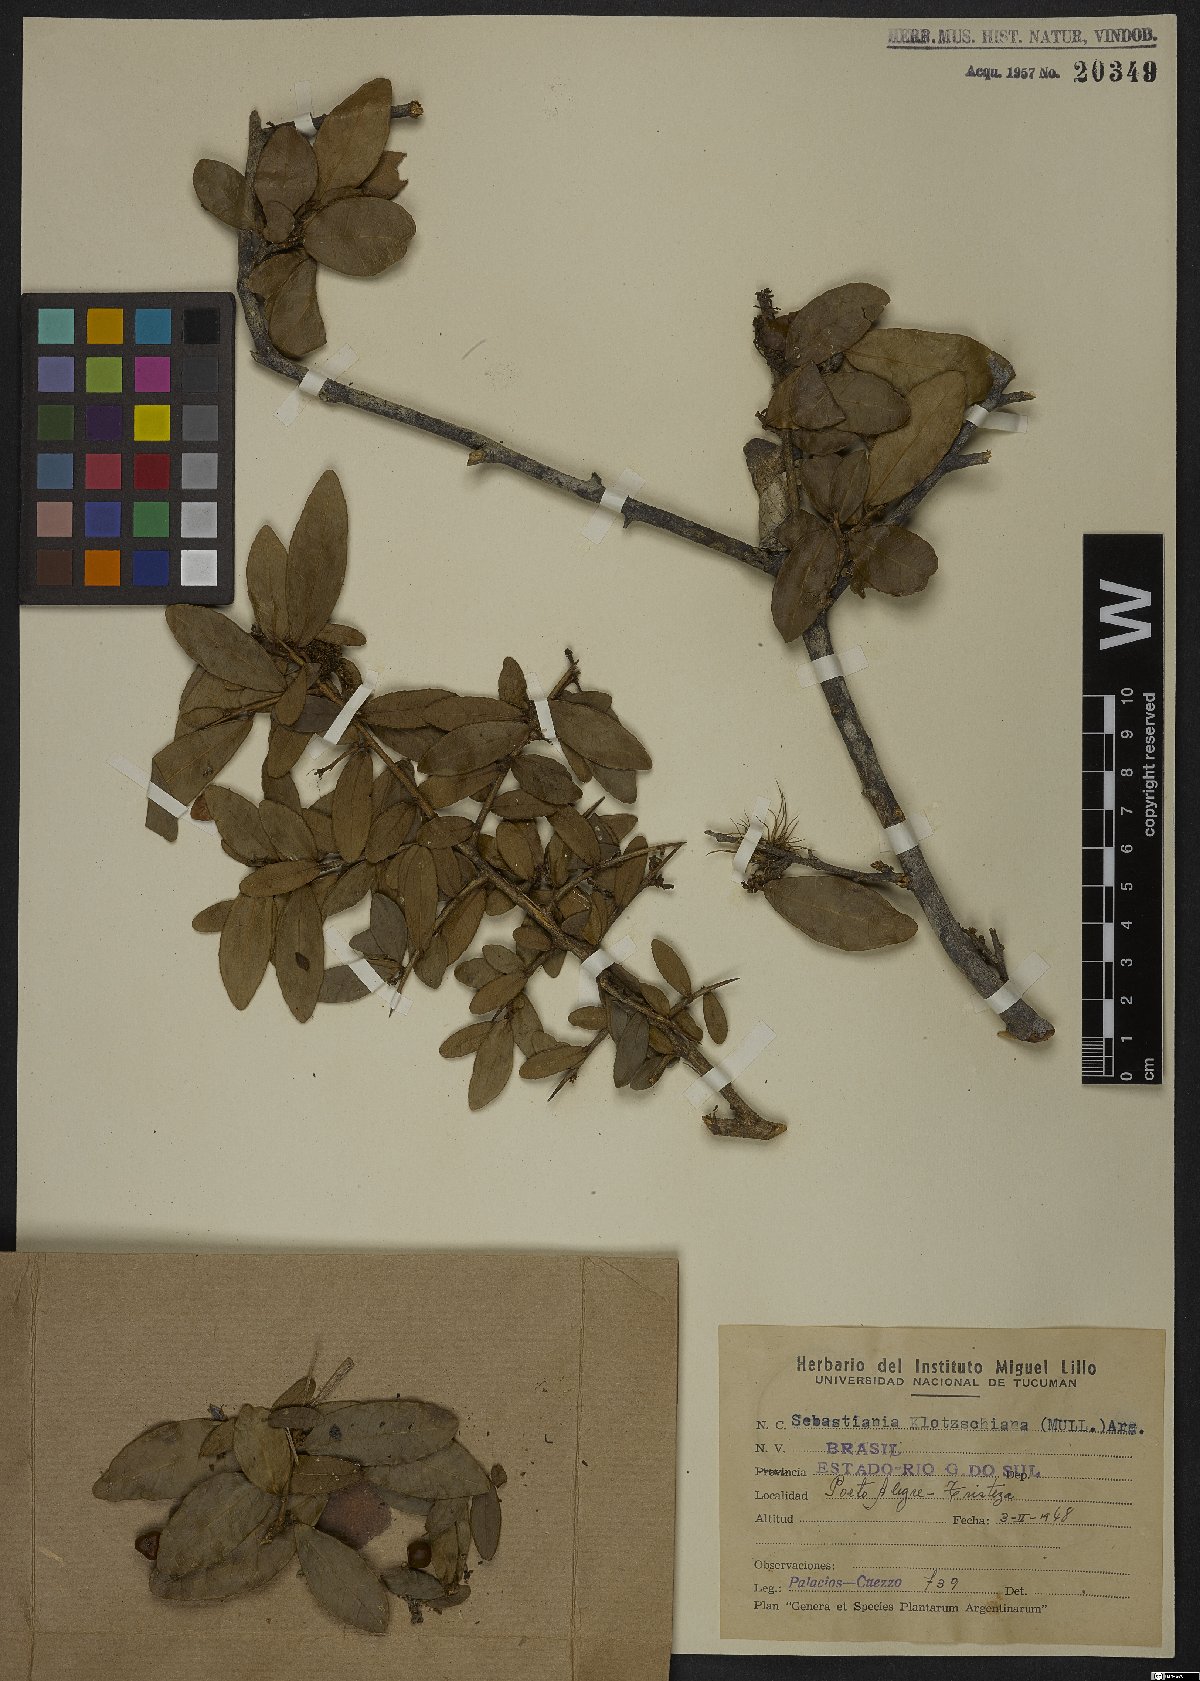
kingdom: Plantae
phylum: Tracheophyta
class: Magnoliopsida
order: Malpighiales
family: Euphorbiaceae
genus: Sebastiania
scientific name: Sebastiania klotzschiana
